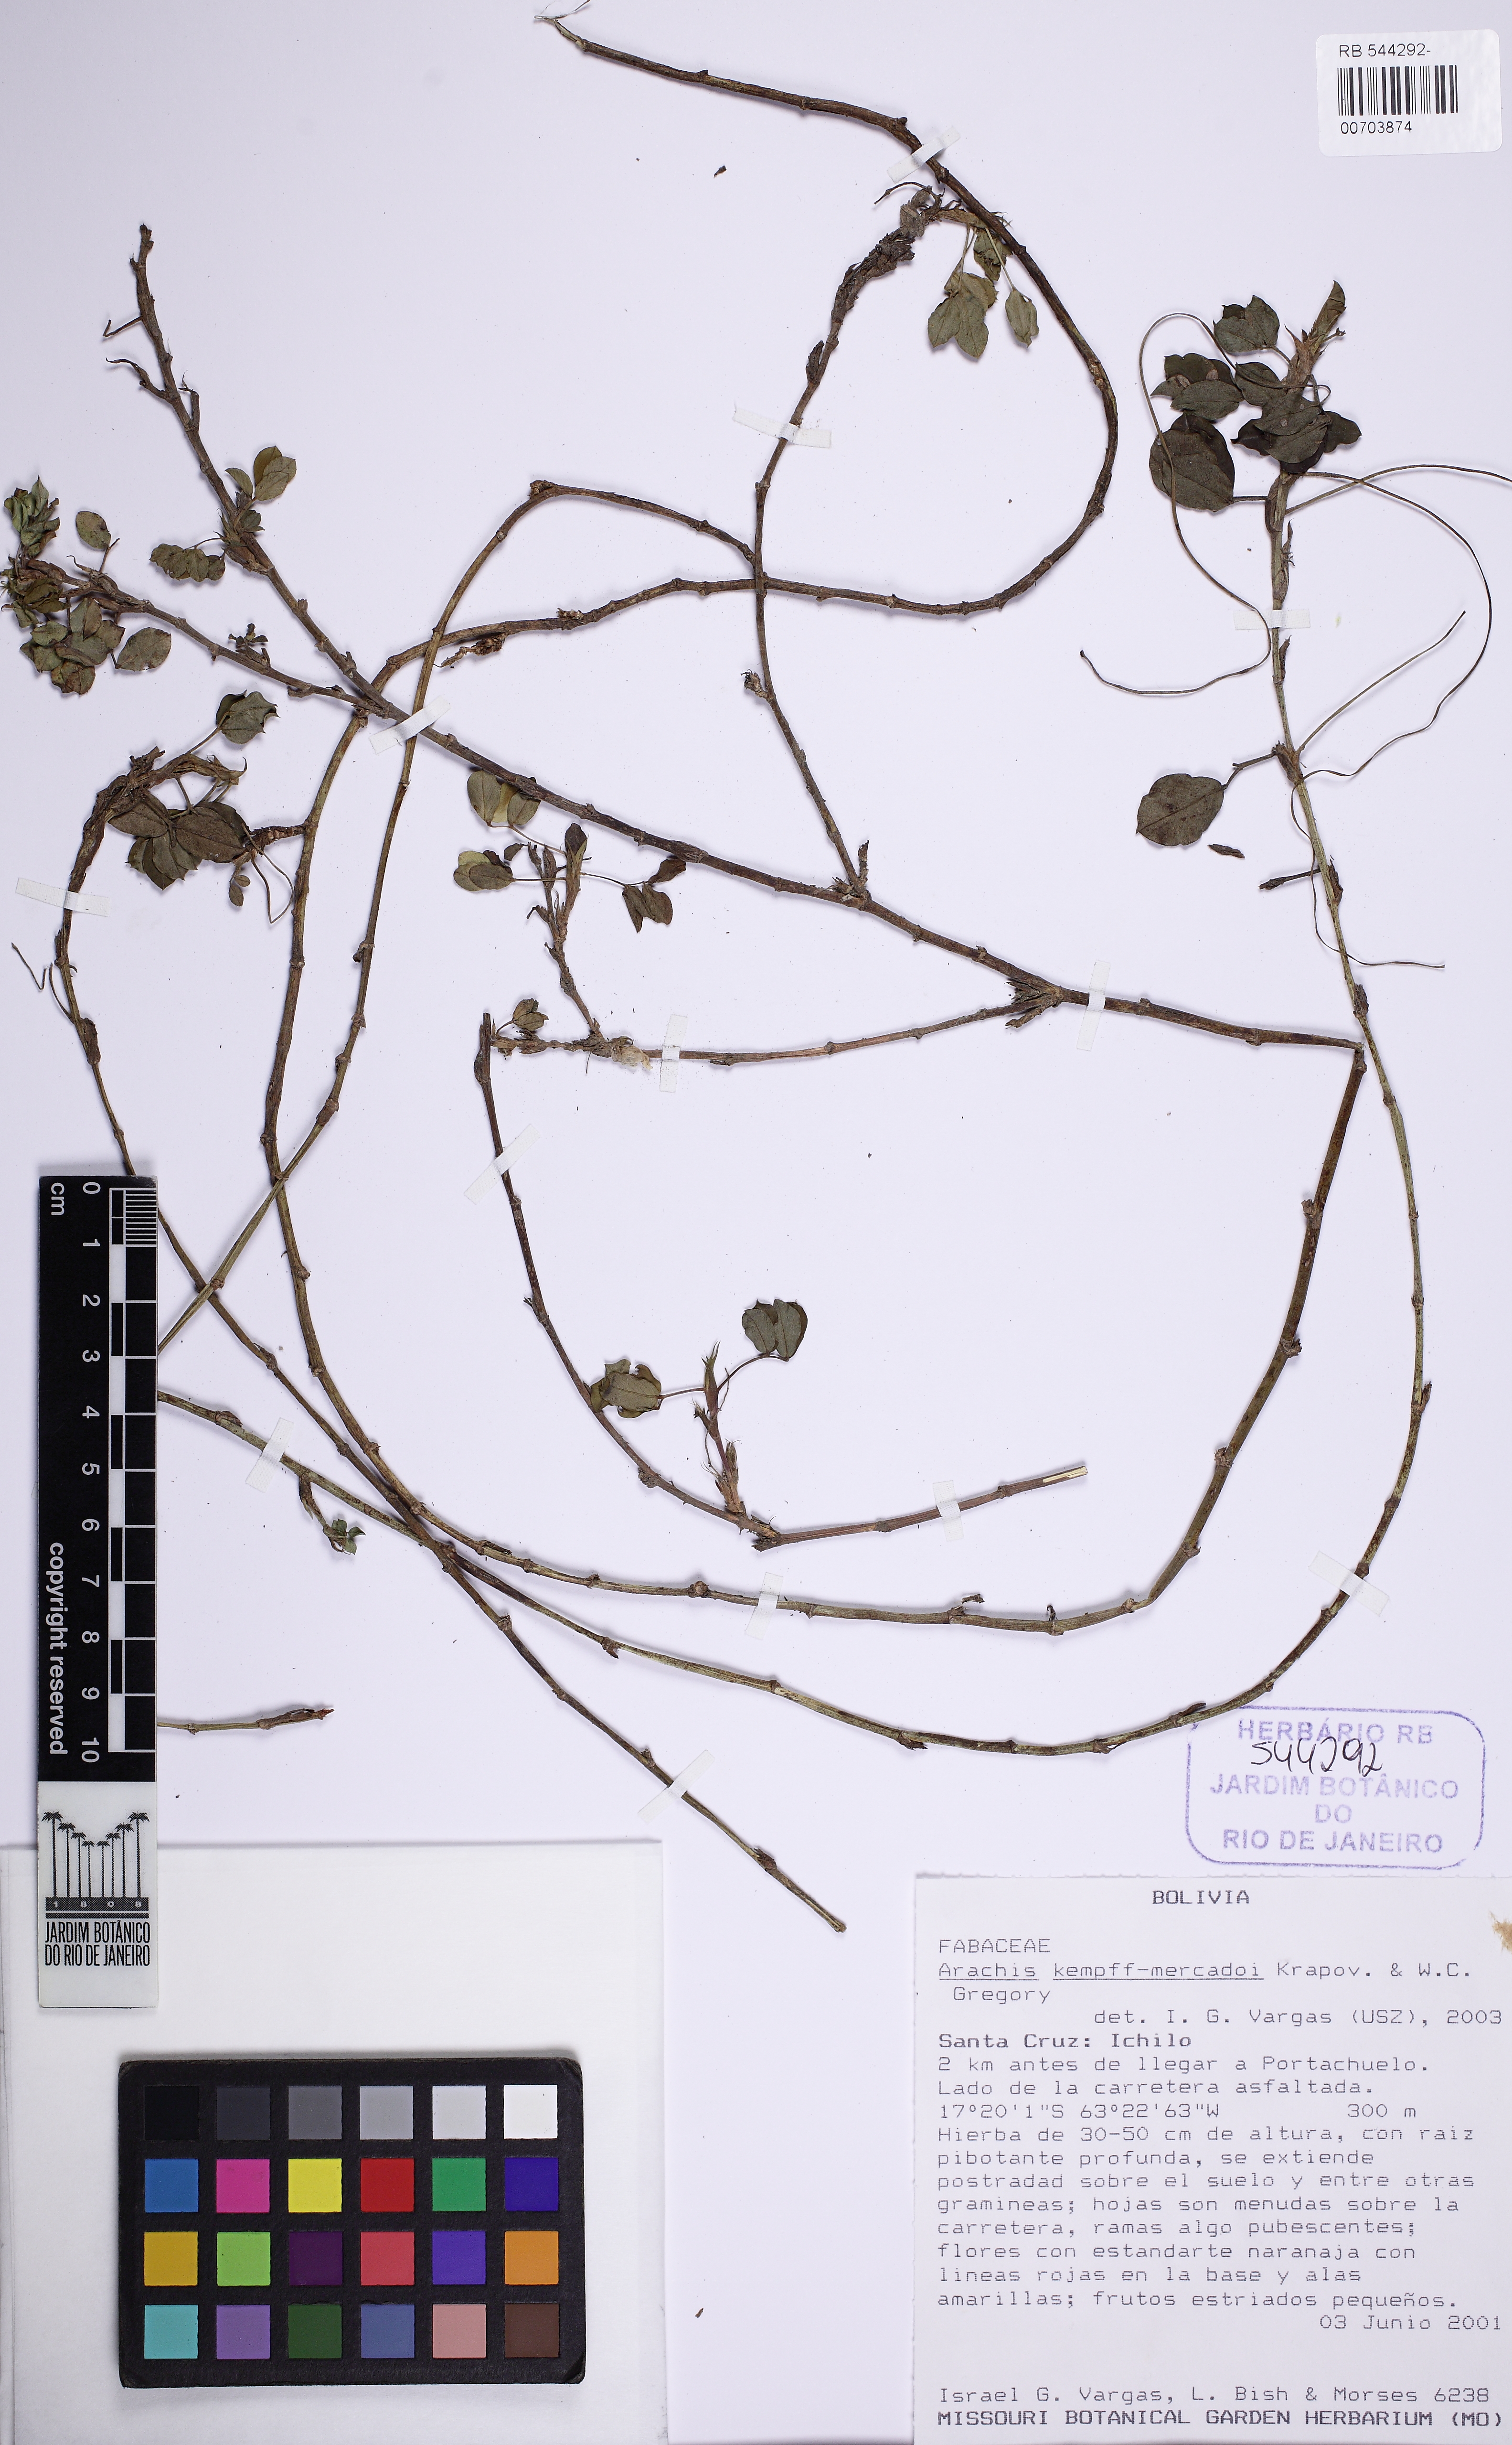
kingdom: Plantae
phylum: Tracheophyta
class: Magnoliopsida
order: Fabales
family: Fabaceae
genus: Arachis
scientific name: Arachis kempff-mercadoi
